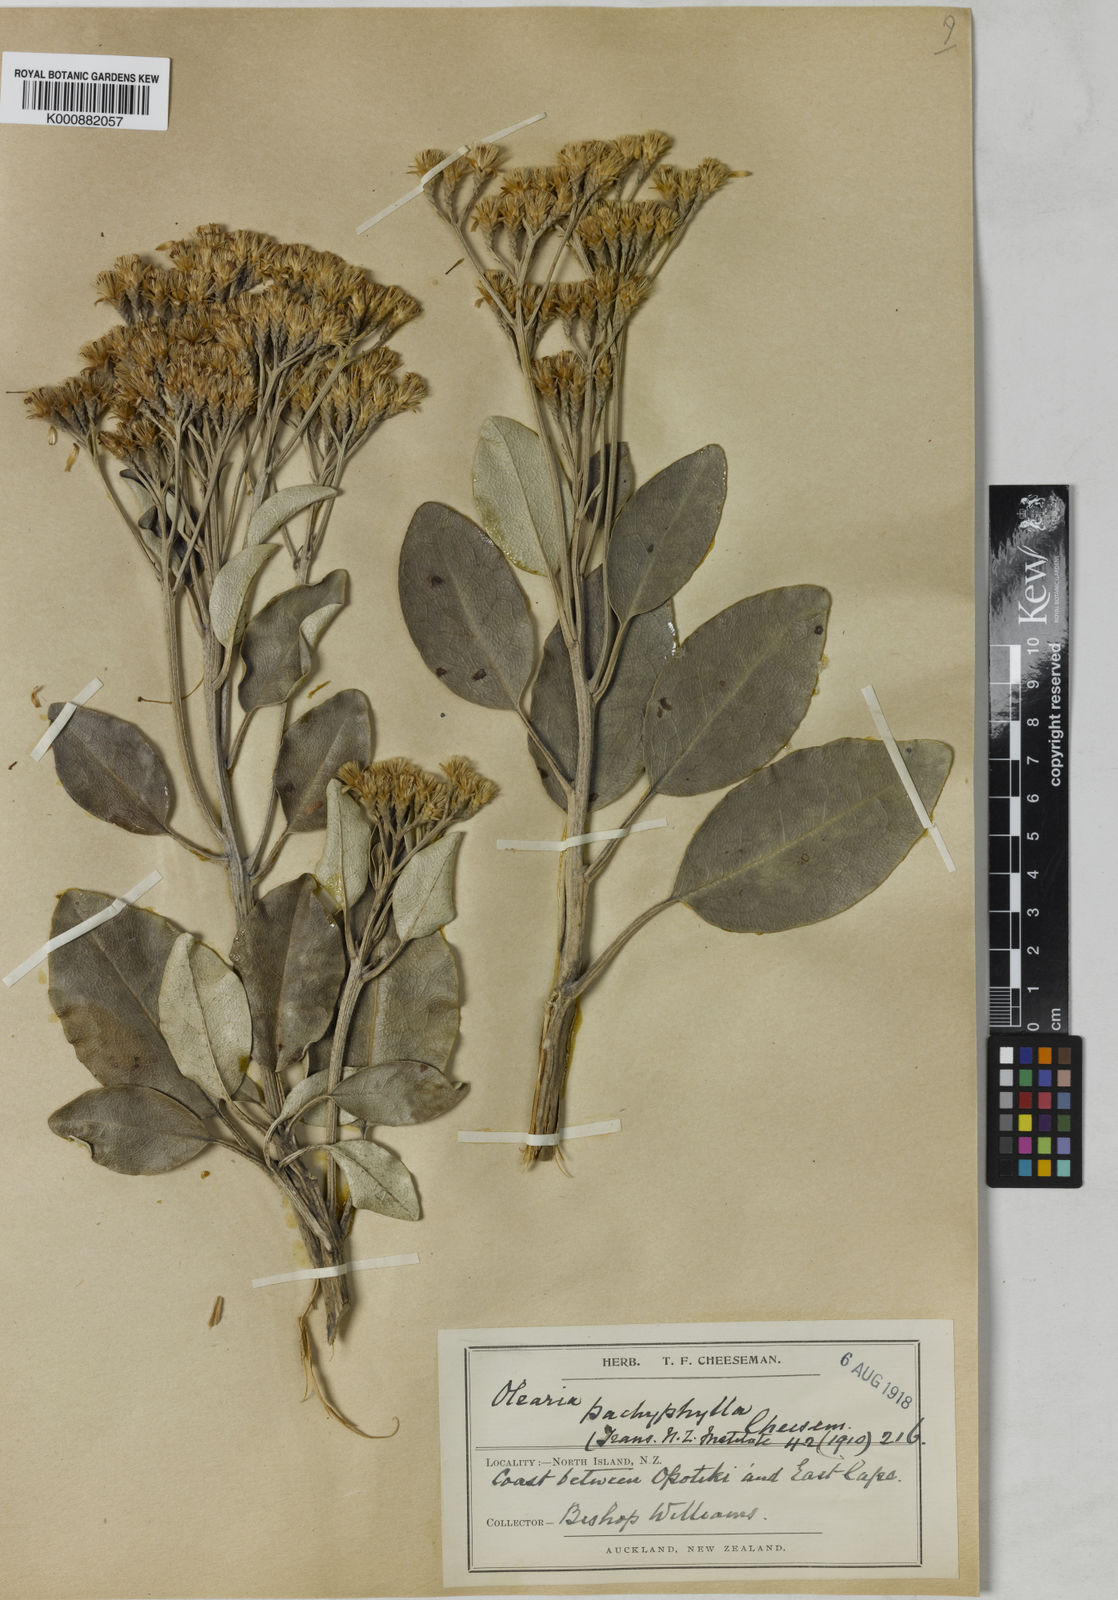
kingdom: Plantae
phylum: Tracheophyta
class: Magnoliopsida
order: Asterales
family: Asteraceae
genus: Olearia
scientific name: Olearia pachyphylla
